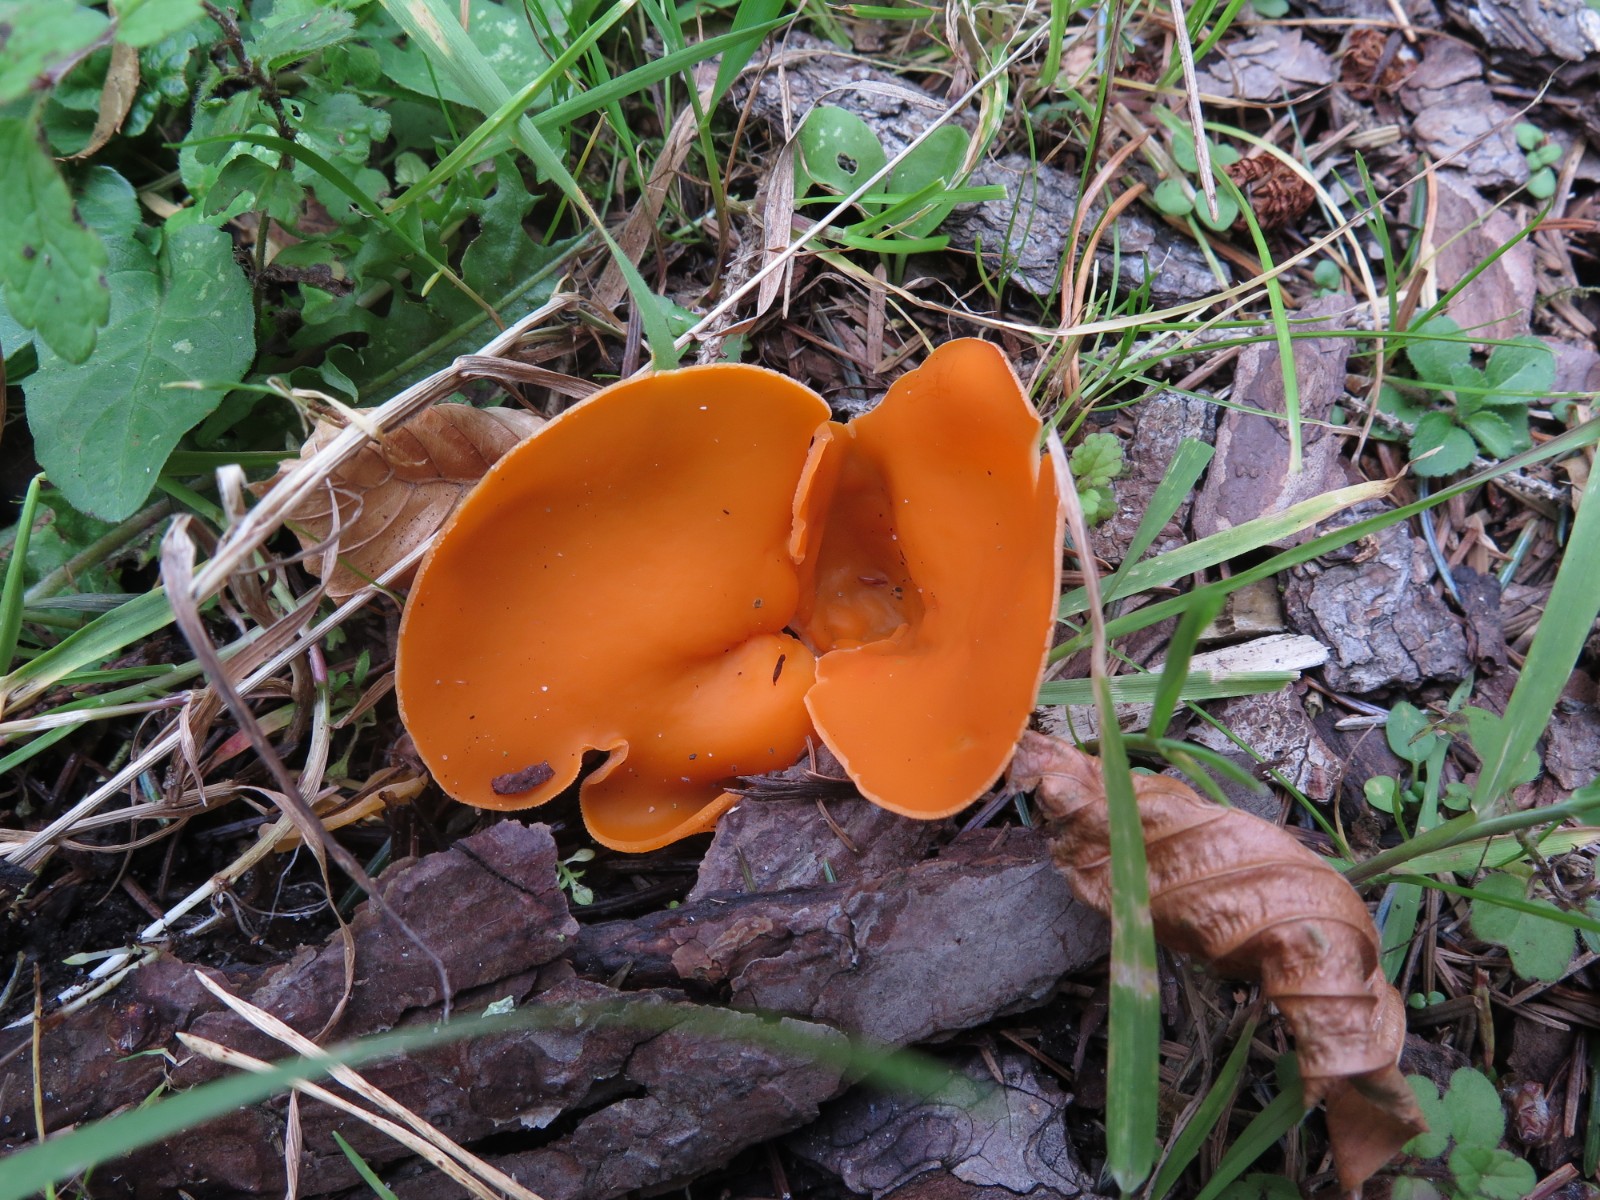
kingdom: Fungi
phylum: Ascomycota
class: Pezizomycetes
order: Pezizales
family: Pyronemataceae
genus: Aleuria
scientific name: Aleuria aurantia
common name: almindelig orangebæger
